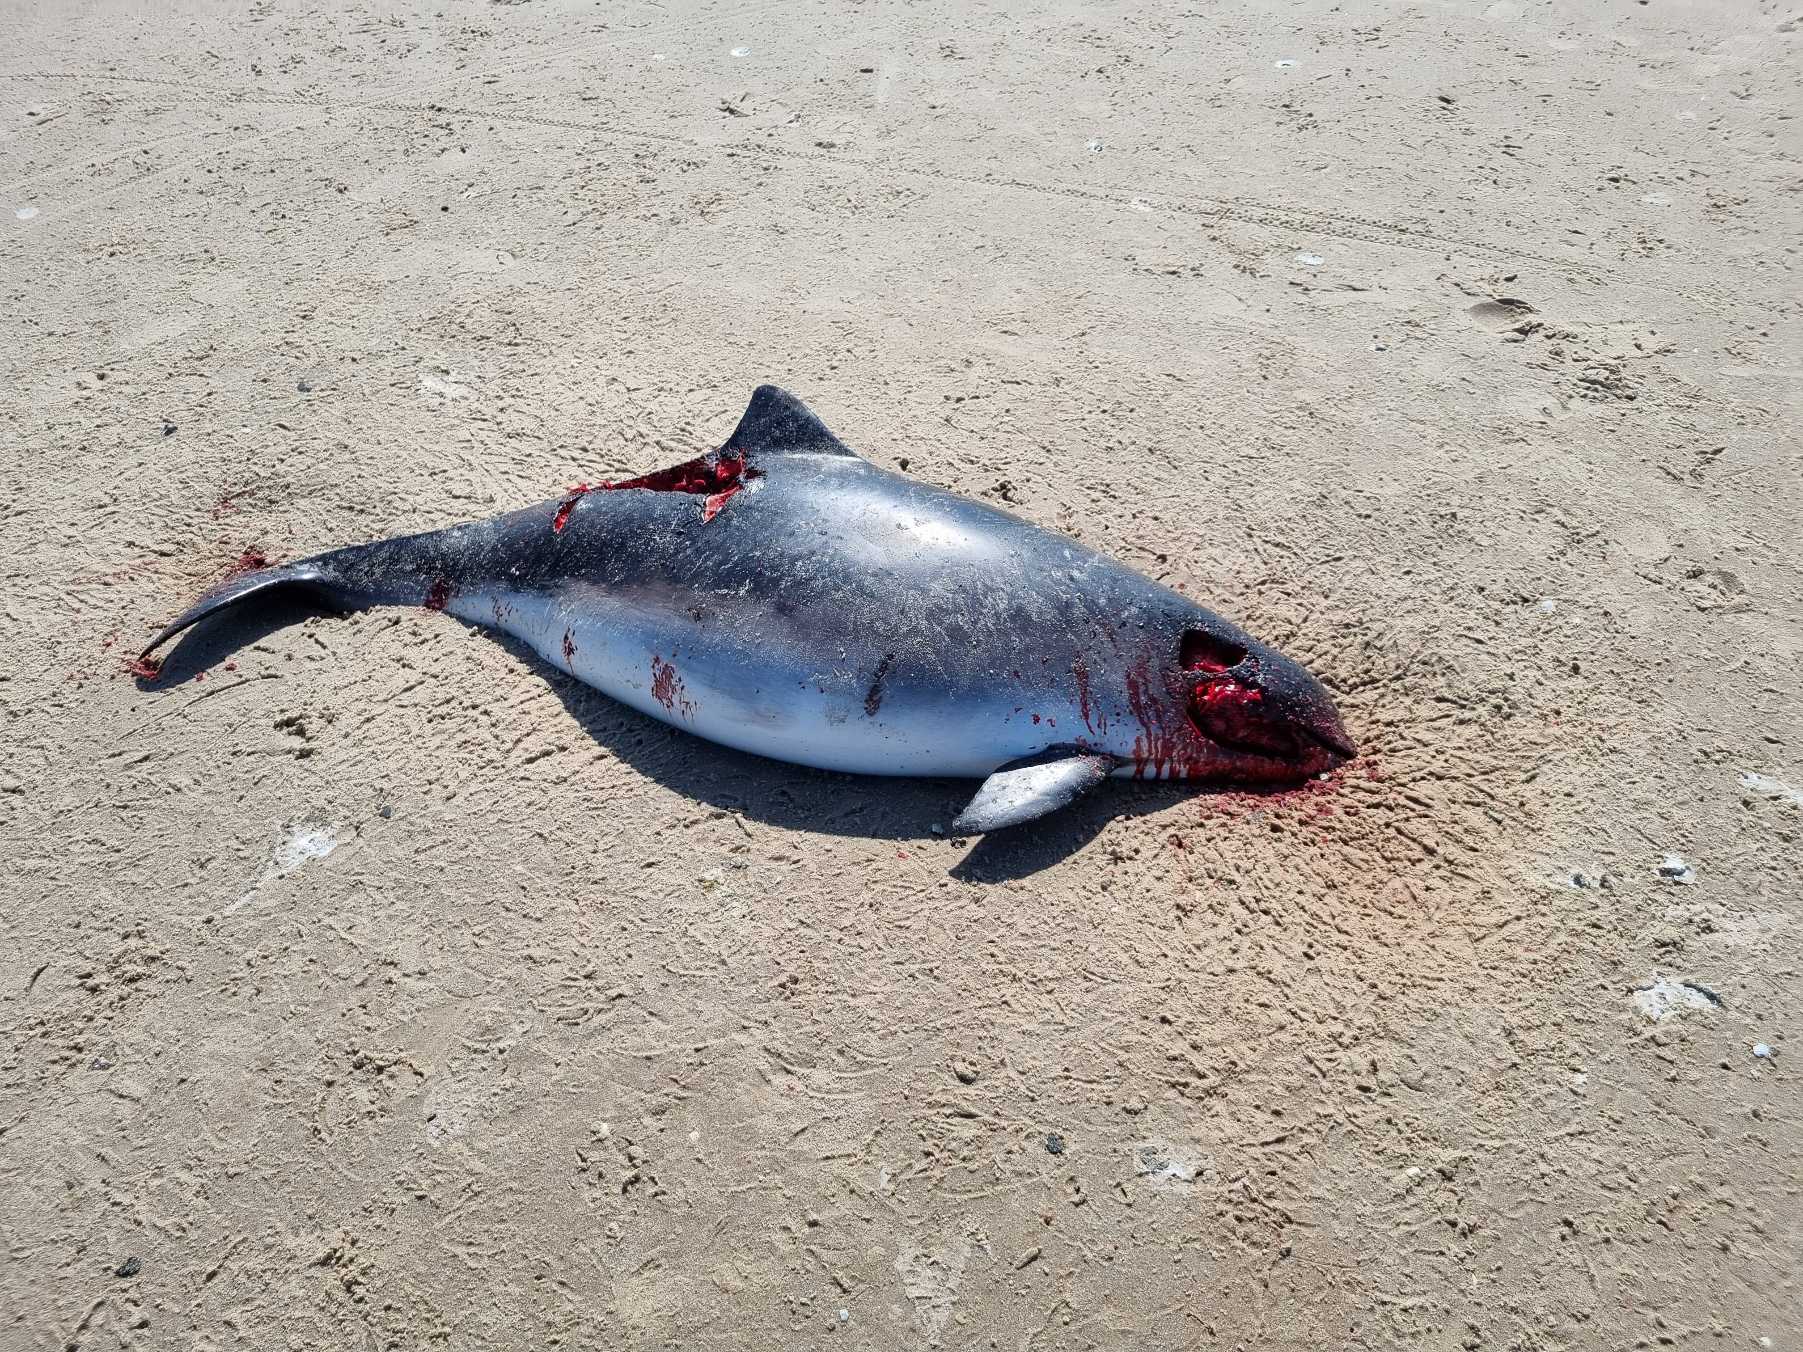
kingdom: Animalia
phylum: Chordata
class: Mammalia
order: Cetacea
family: Phocoenidae
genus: Phocoena
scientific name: Phocoena phocoena
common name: Marsvin
